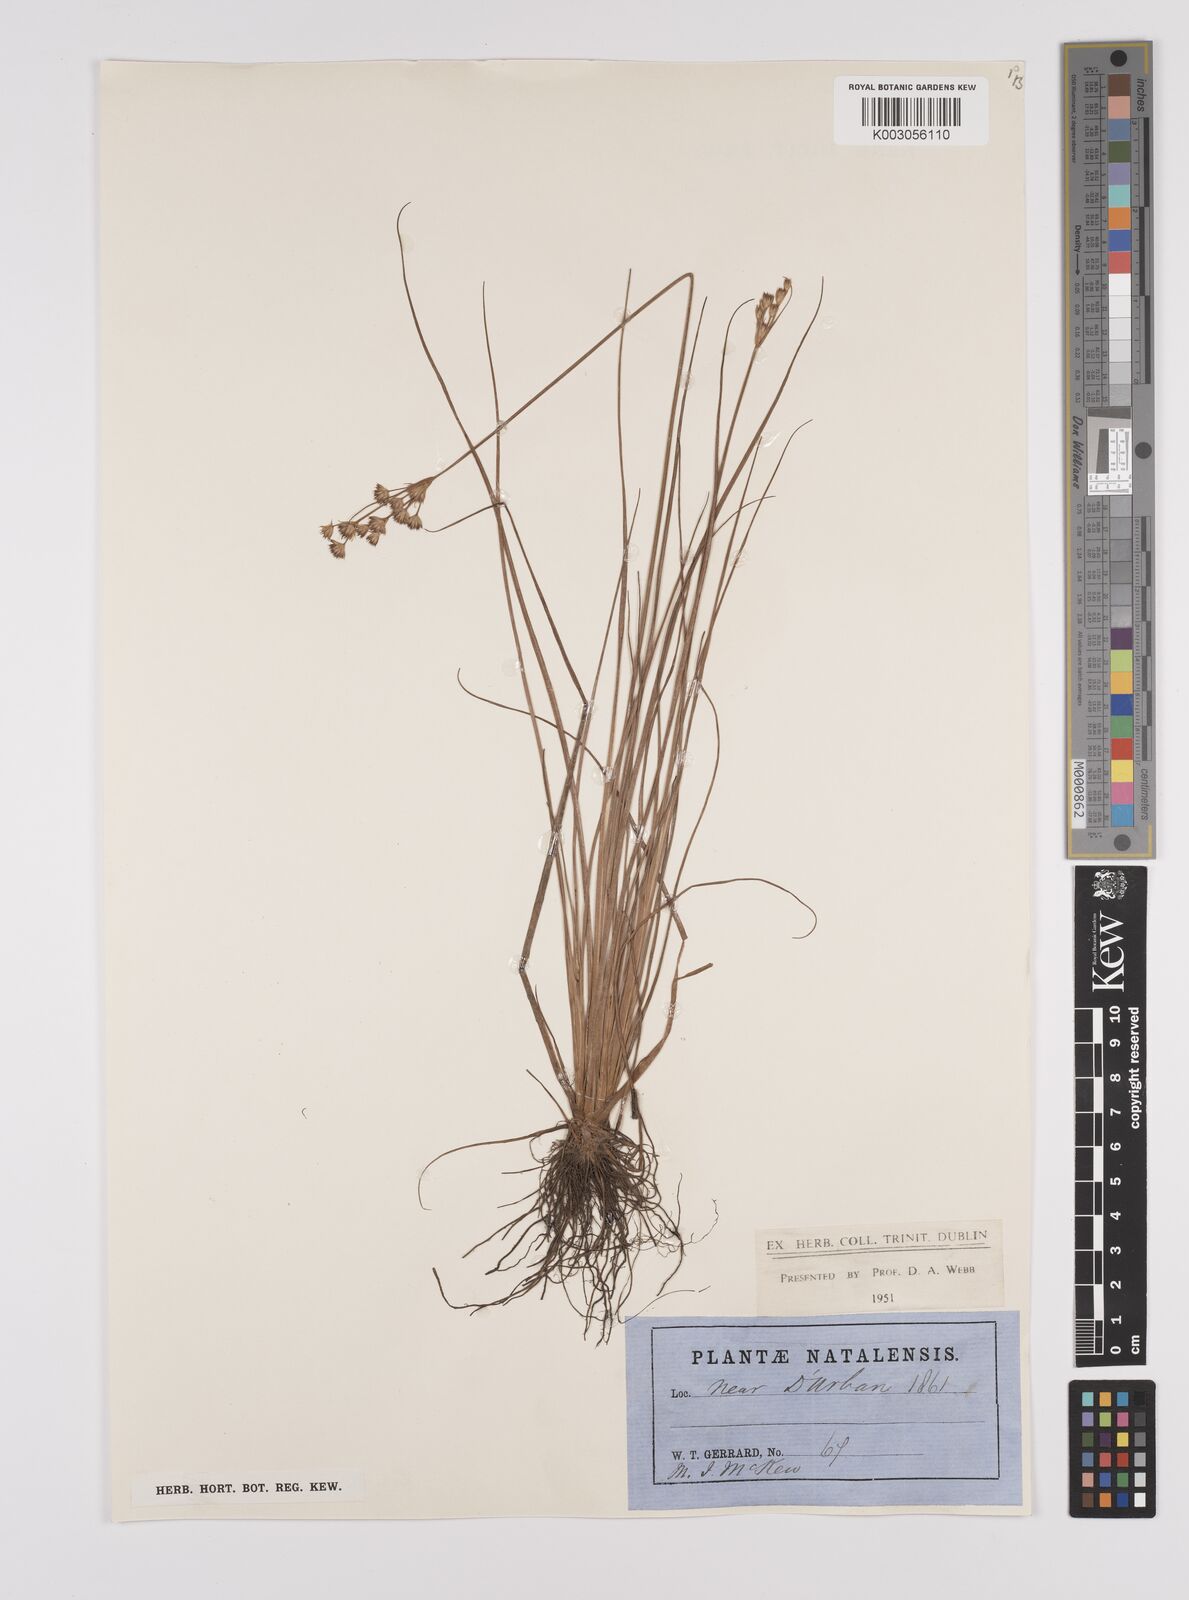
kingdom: Plantae
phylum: Tracheophyta
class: Liliopsida
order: Poales
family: Juncaceae
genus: Juncus
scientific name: Juncus
